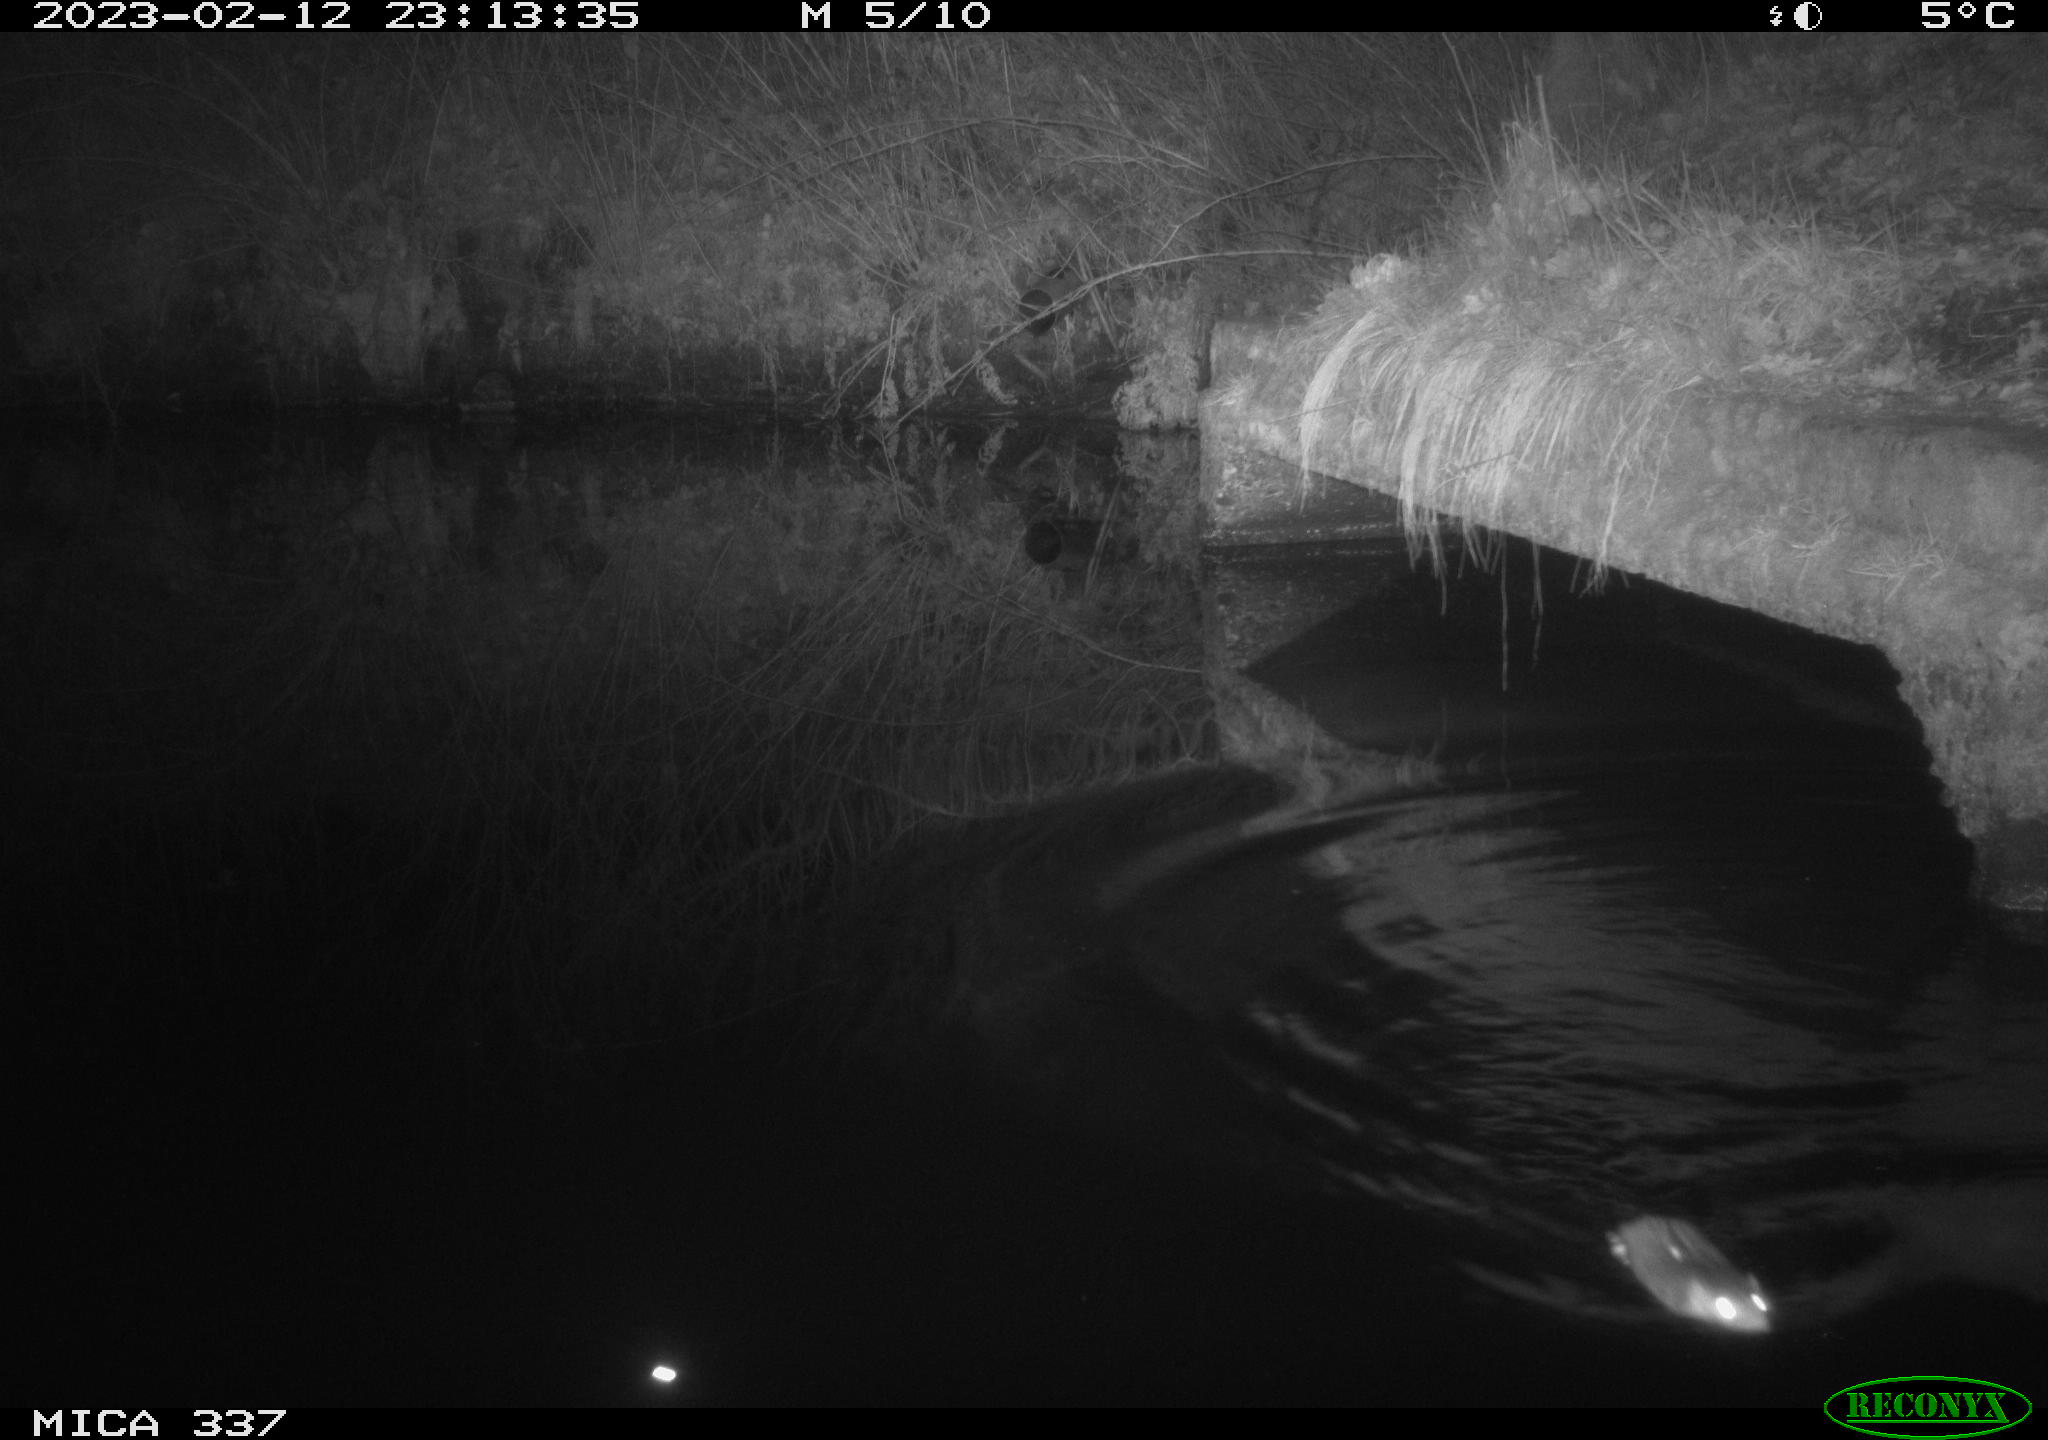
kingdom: Animalia
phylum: Chordata
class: Mammalia
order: Rodentia
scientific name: Rodentia
